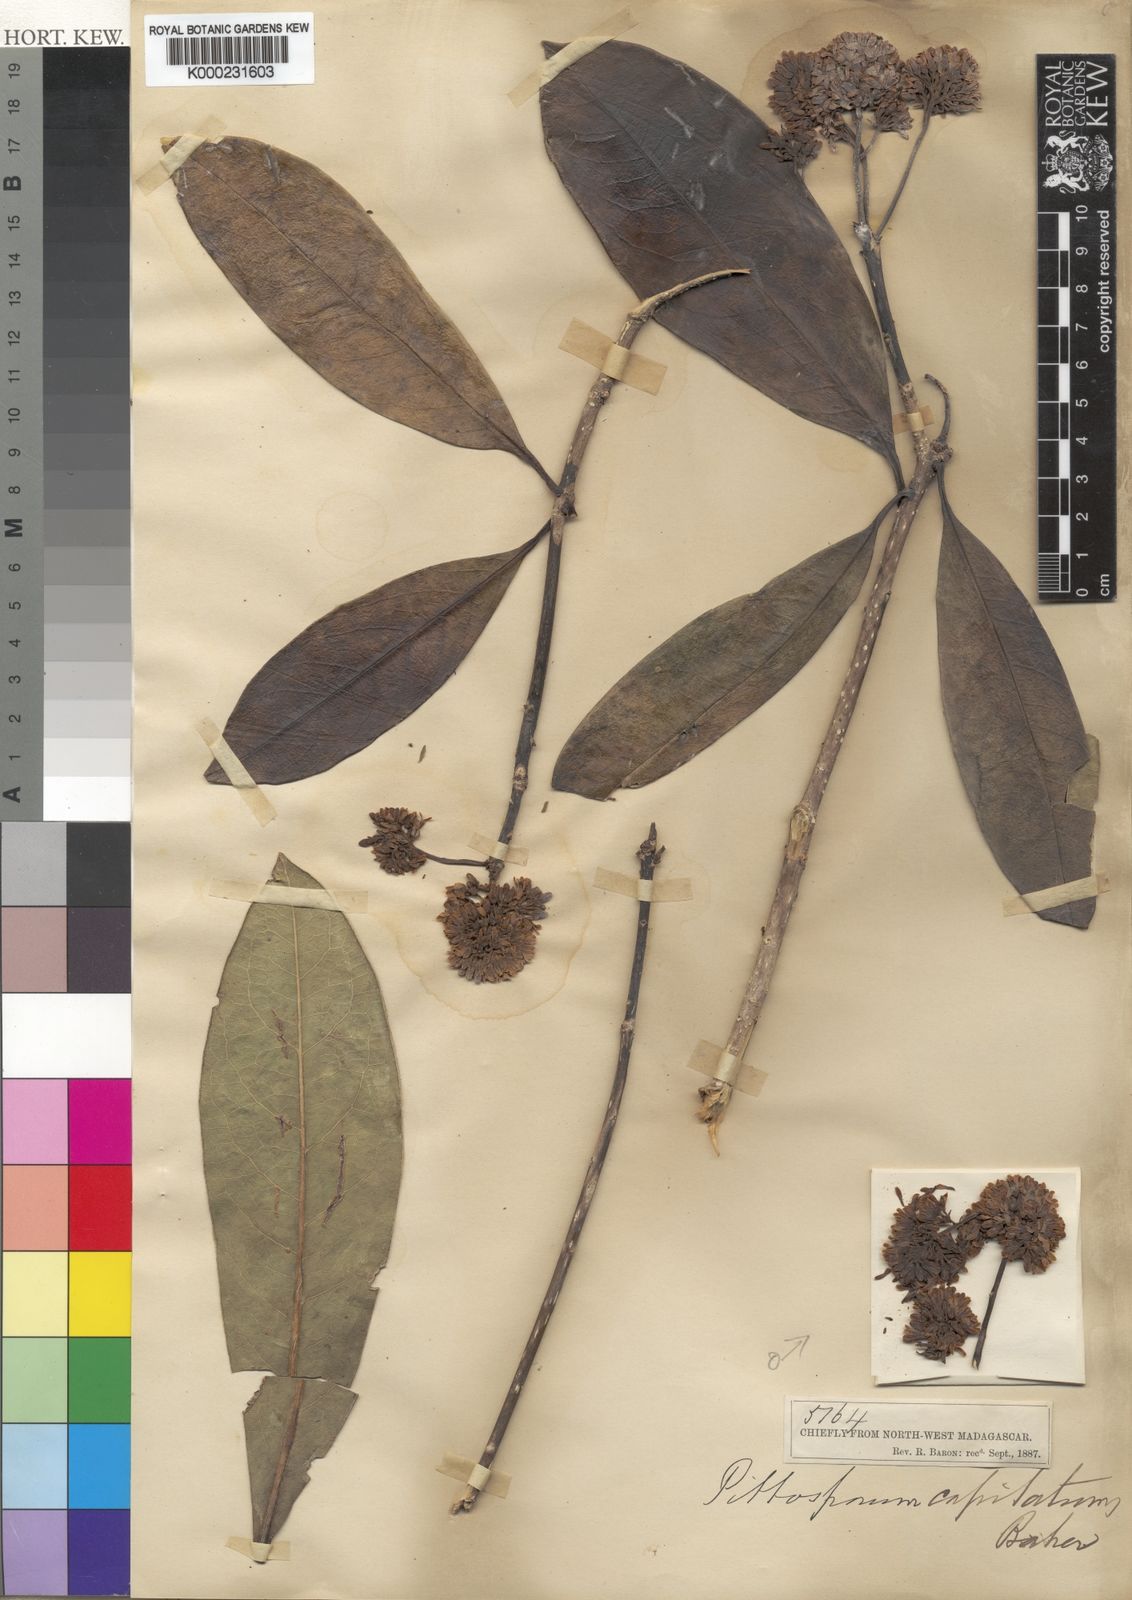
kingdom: Plantae
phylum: Tracheophyta
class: Magnoliopsida
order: Apiales
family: Pittosporaceae
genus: Pittosporum
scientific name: Pittosporum
